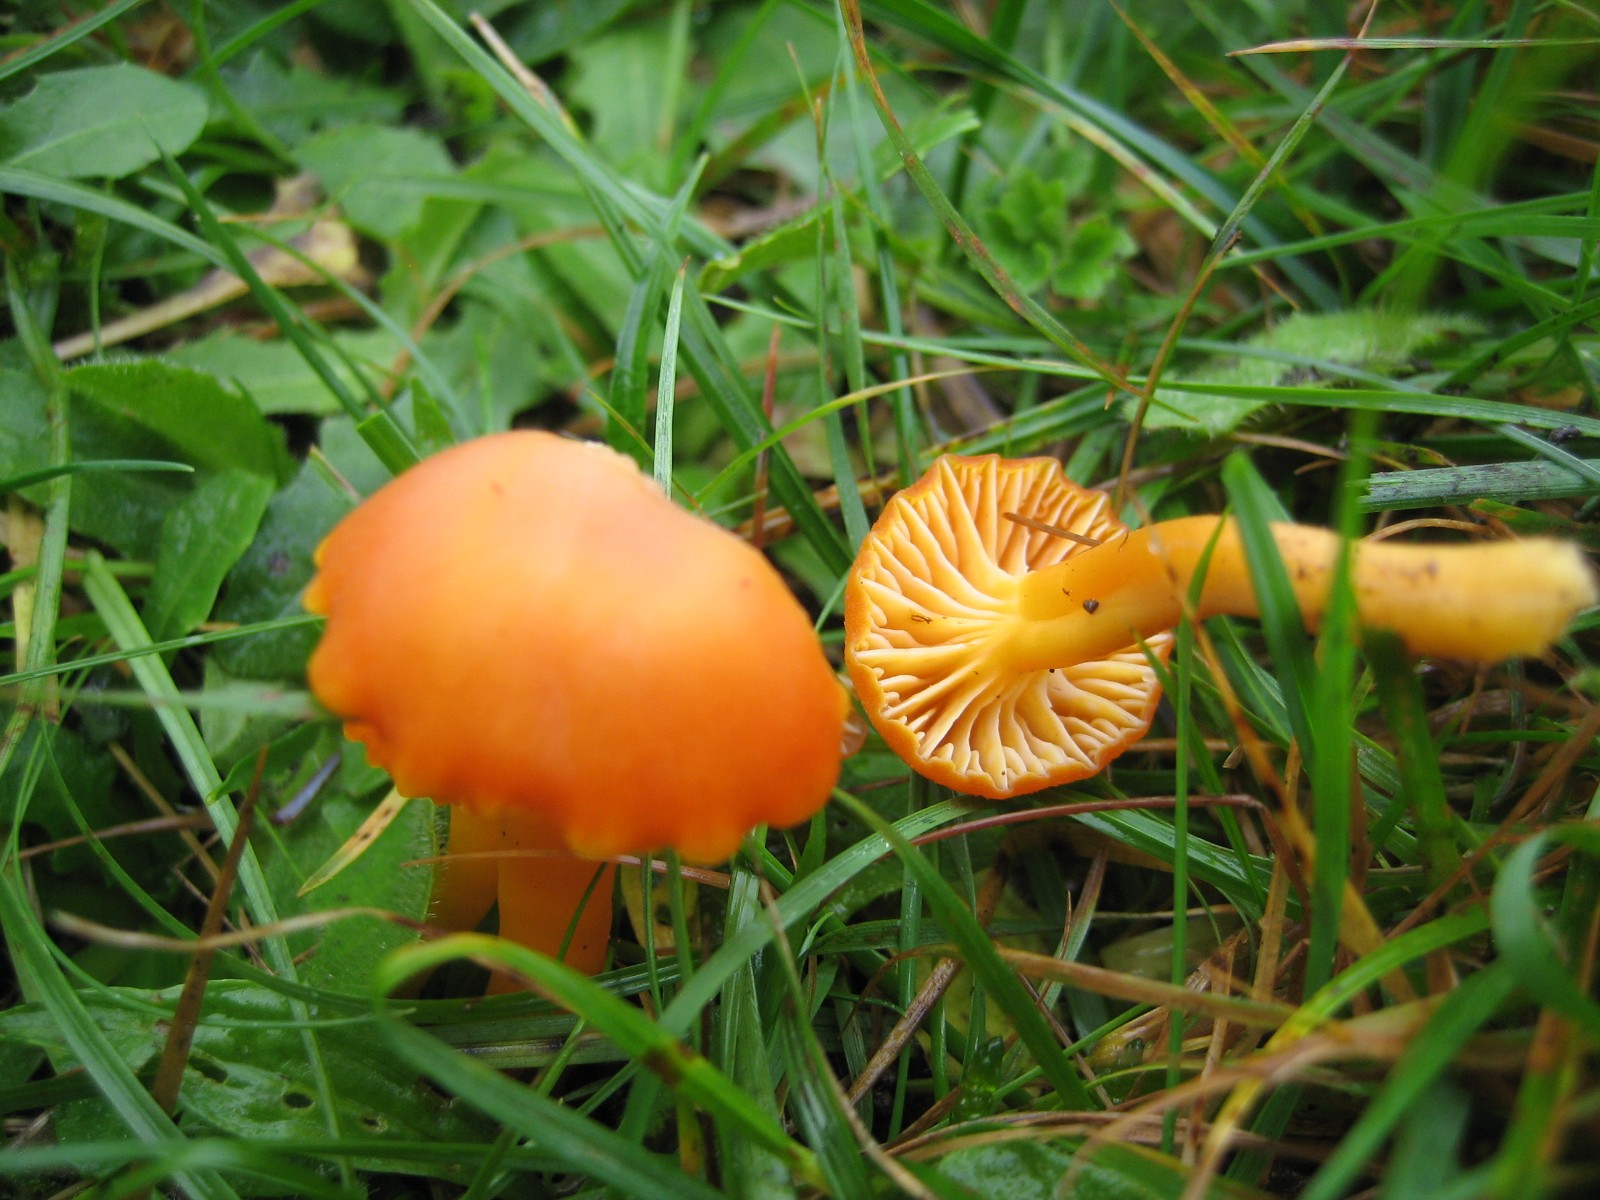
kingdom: Fungi
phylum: Basidiomycota
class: Agaricomycetes
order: Agaricales
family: Hygrophoraceae
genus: Hygrocybe
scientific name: Hygrocybe reidii
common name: honning-vokshat
